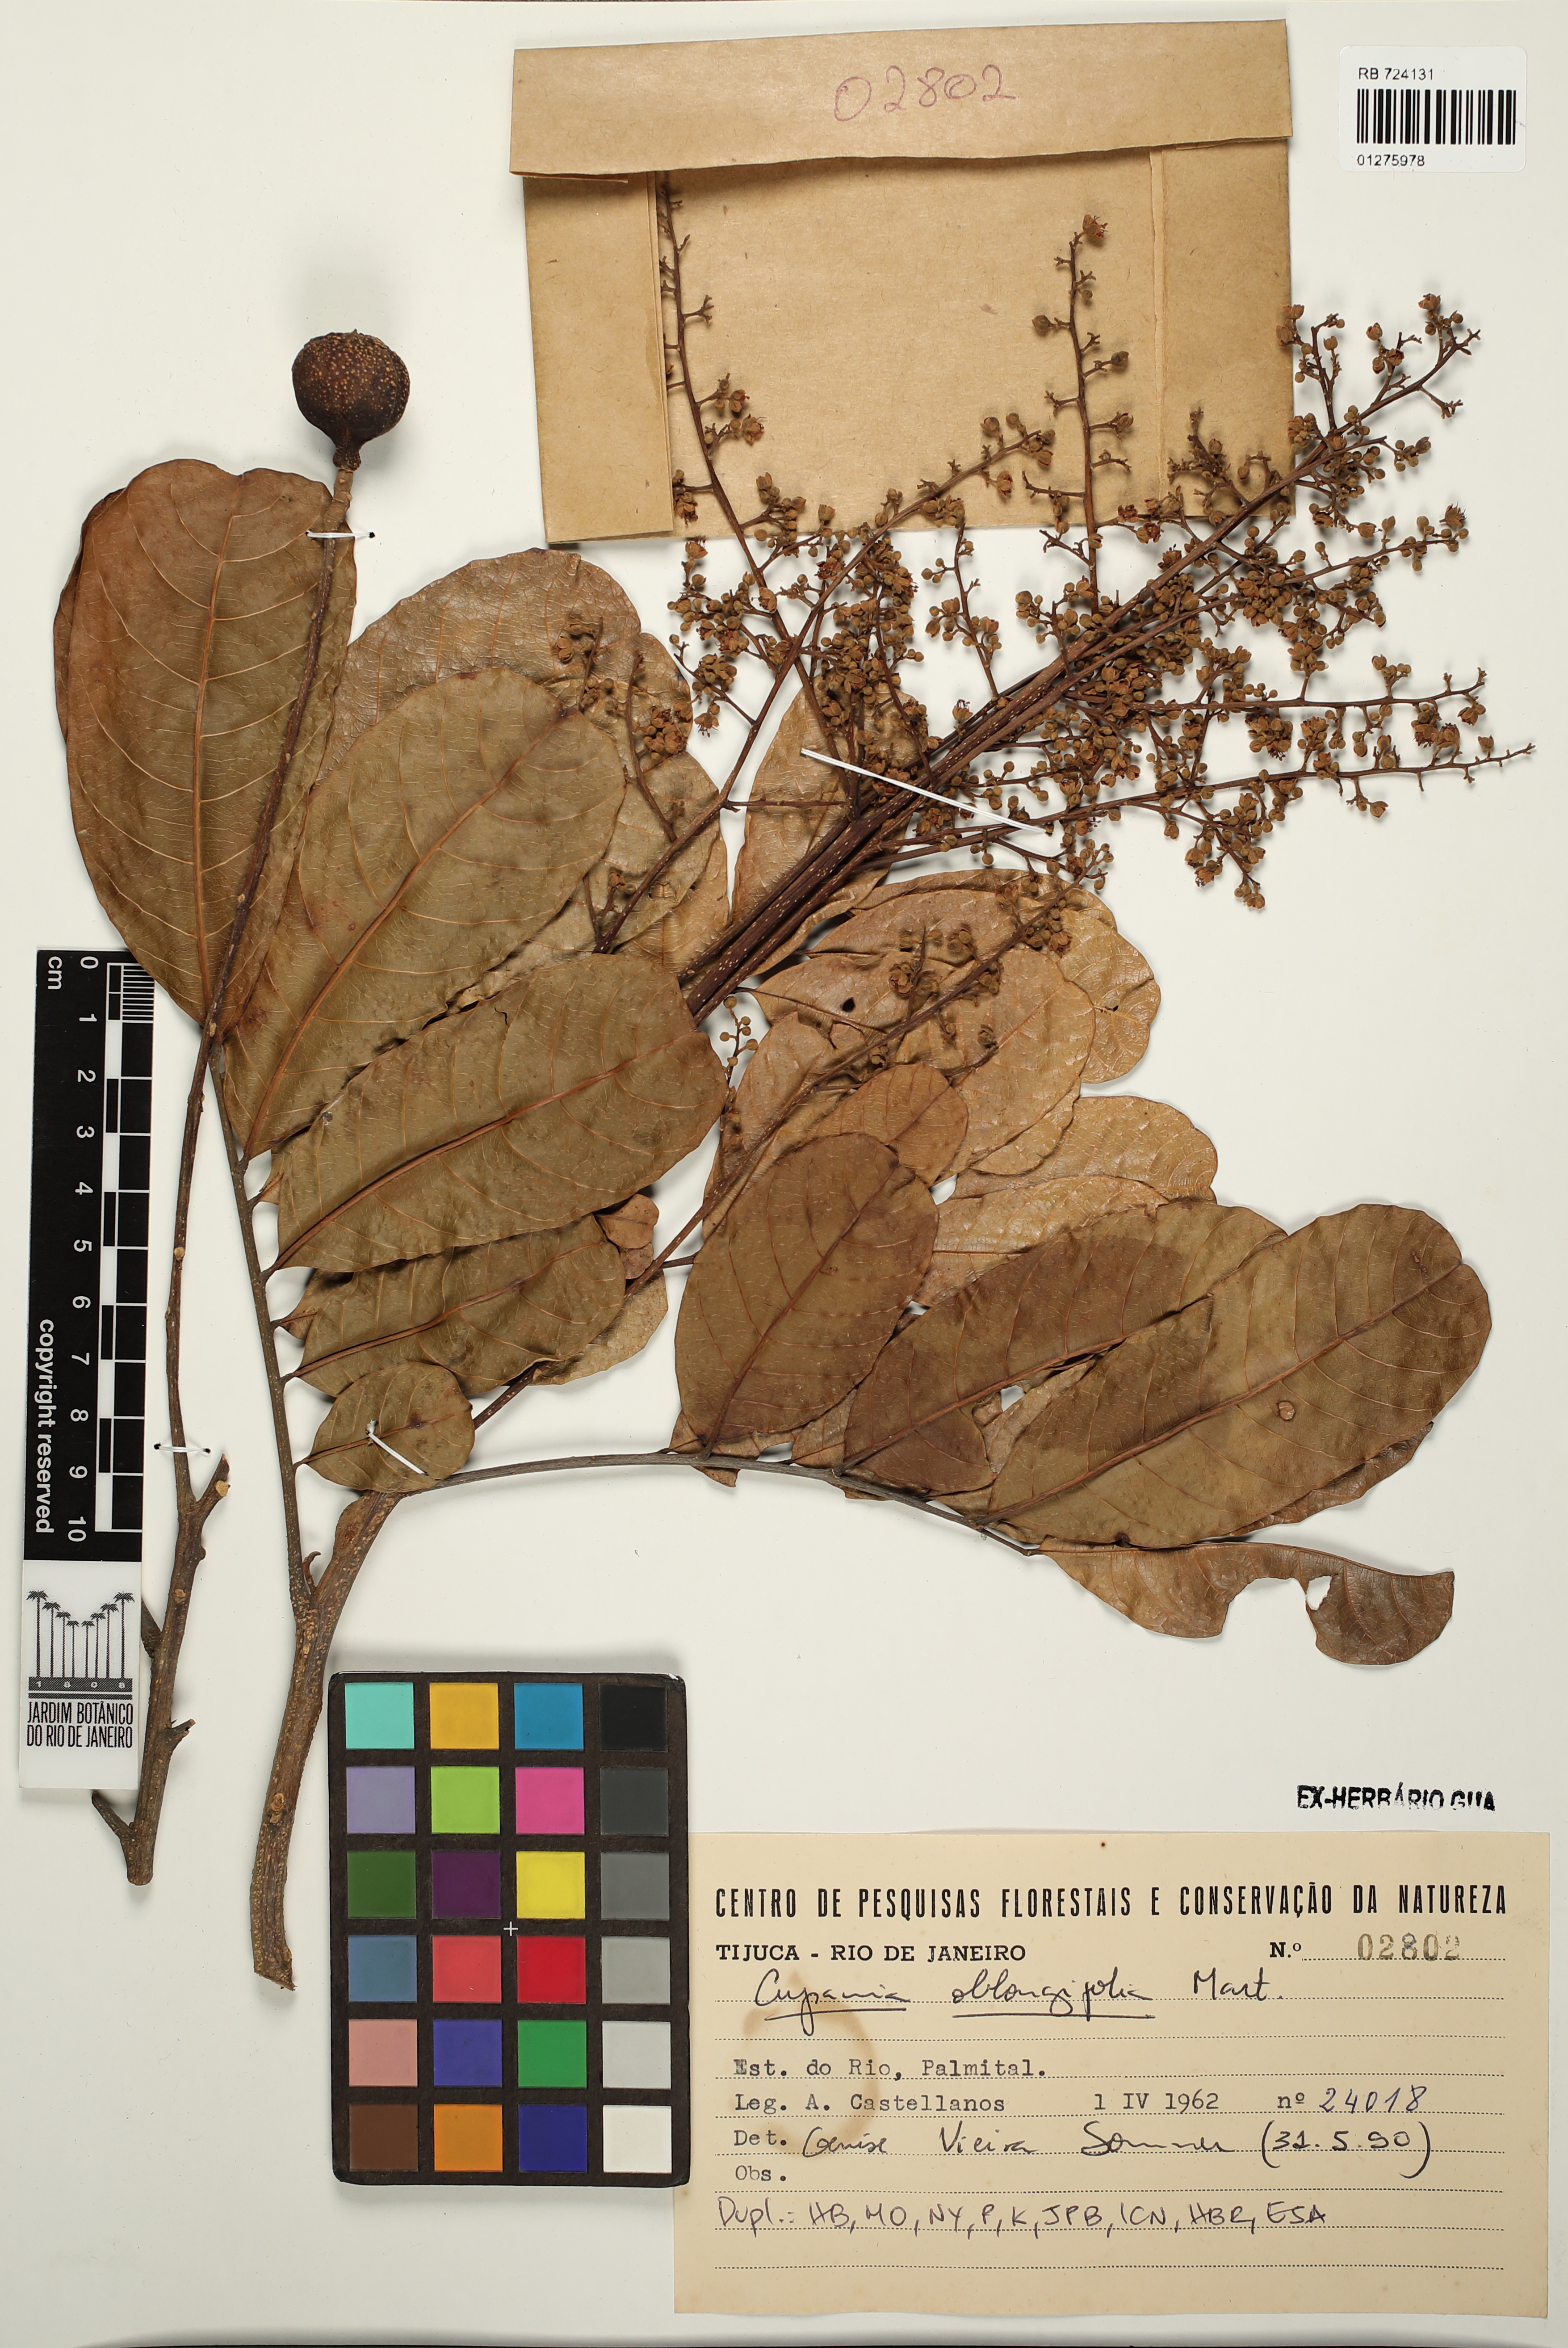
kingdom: Plantae
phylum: Tracheophyta
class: Magnoliopsida
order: Sapindales
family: Sapindaceae
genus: Cupania
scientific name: Cupania oblongifolia
